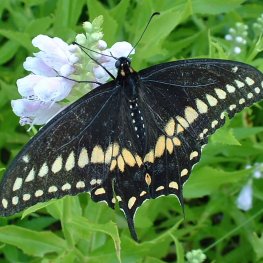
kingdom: Animalia
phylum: Arthropoda
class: Insecta
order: Lepidoptera
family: Papilionidae
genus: Papilio
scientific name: Papilio polyxenes
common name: Black Swallowtail
